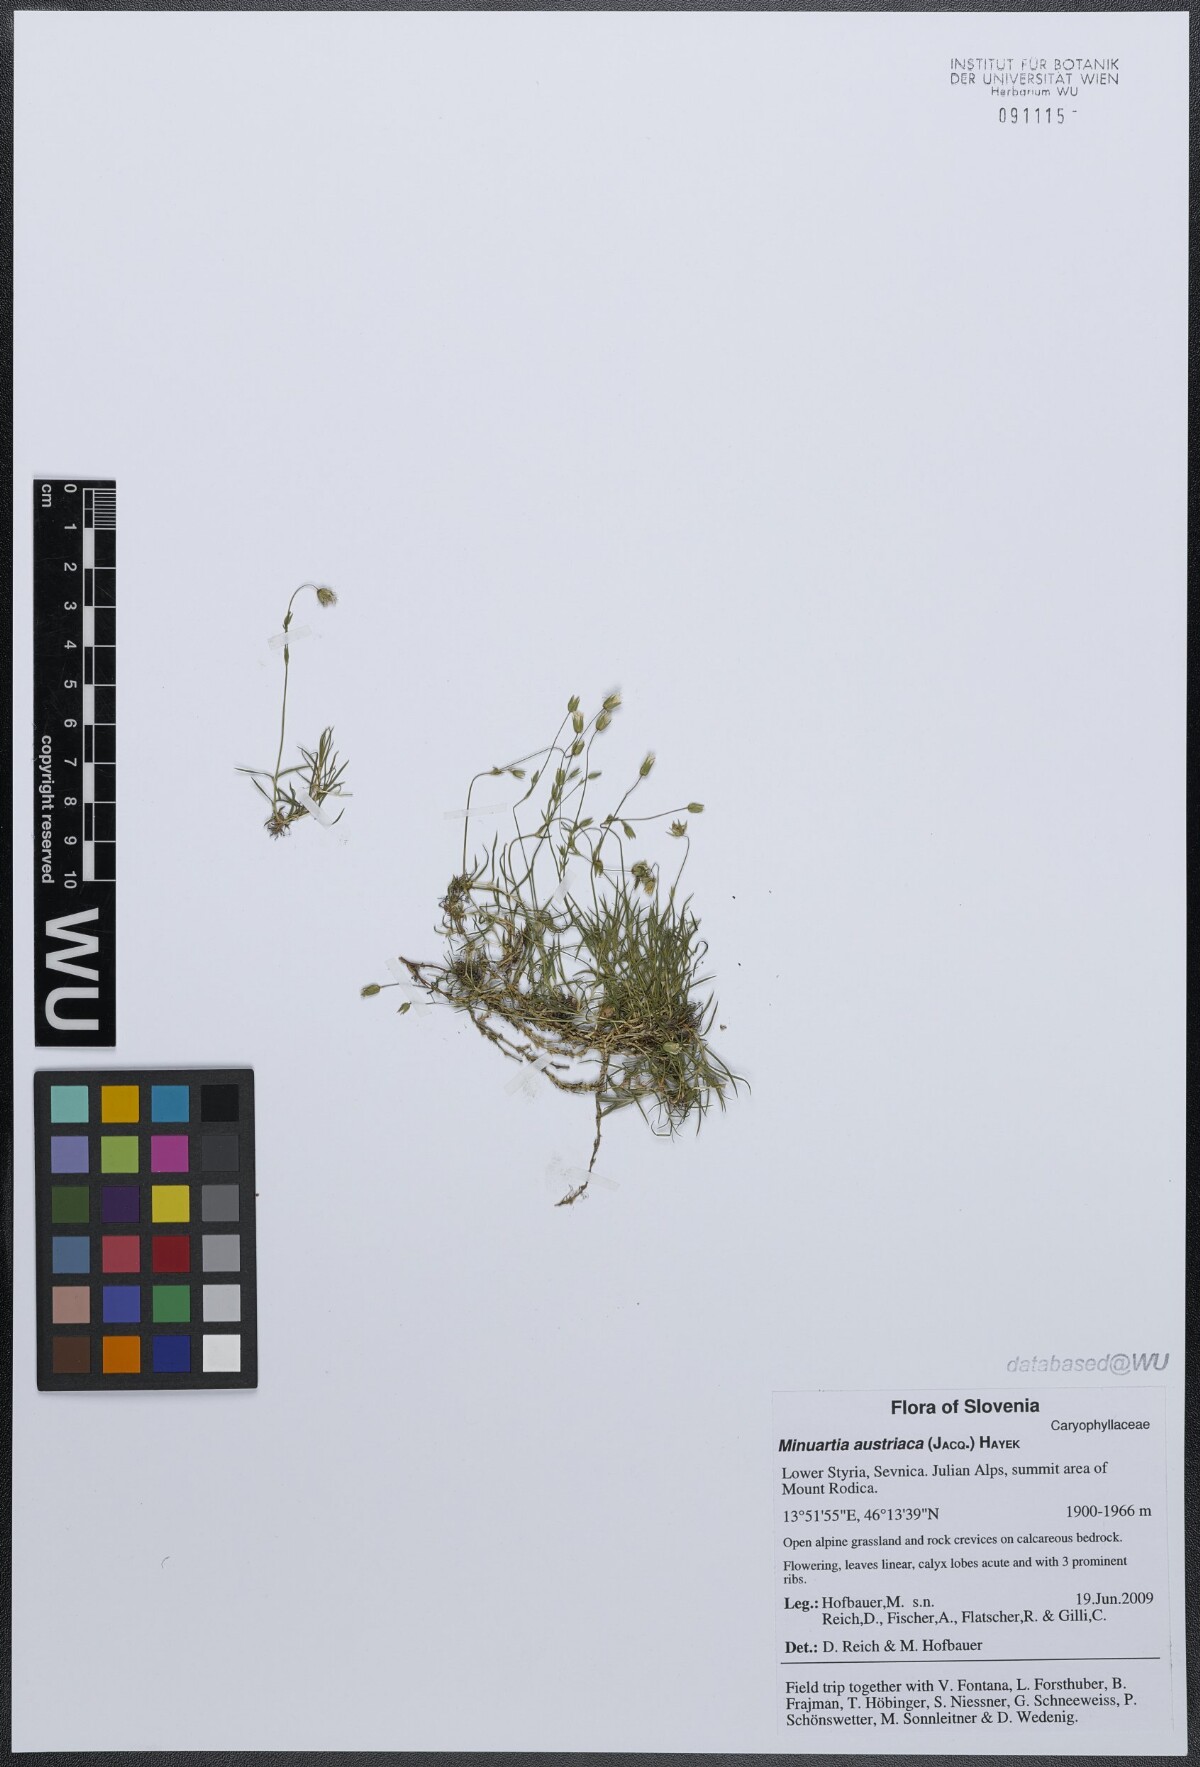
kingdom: Plantae
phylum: Tracheophyta
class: Magnoliopsida
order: Caryophyllales
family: Caryophyllaceae
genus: Sabulina
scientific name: Sabulina austriaca
